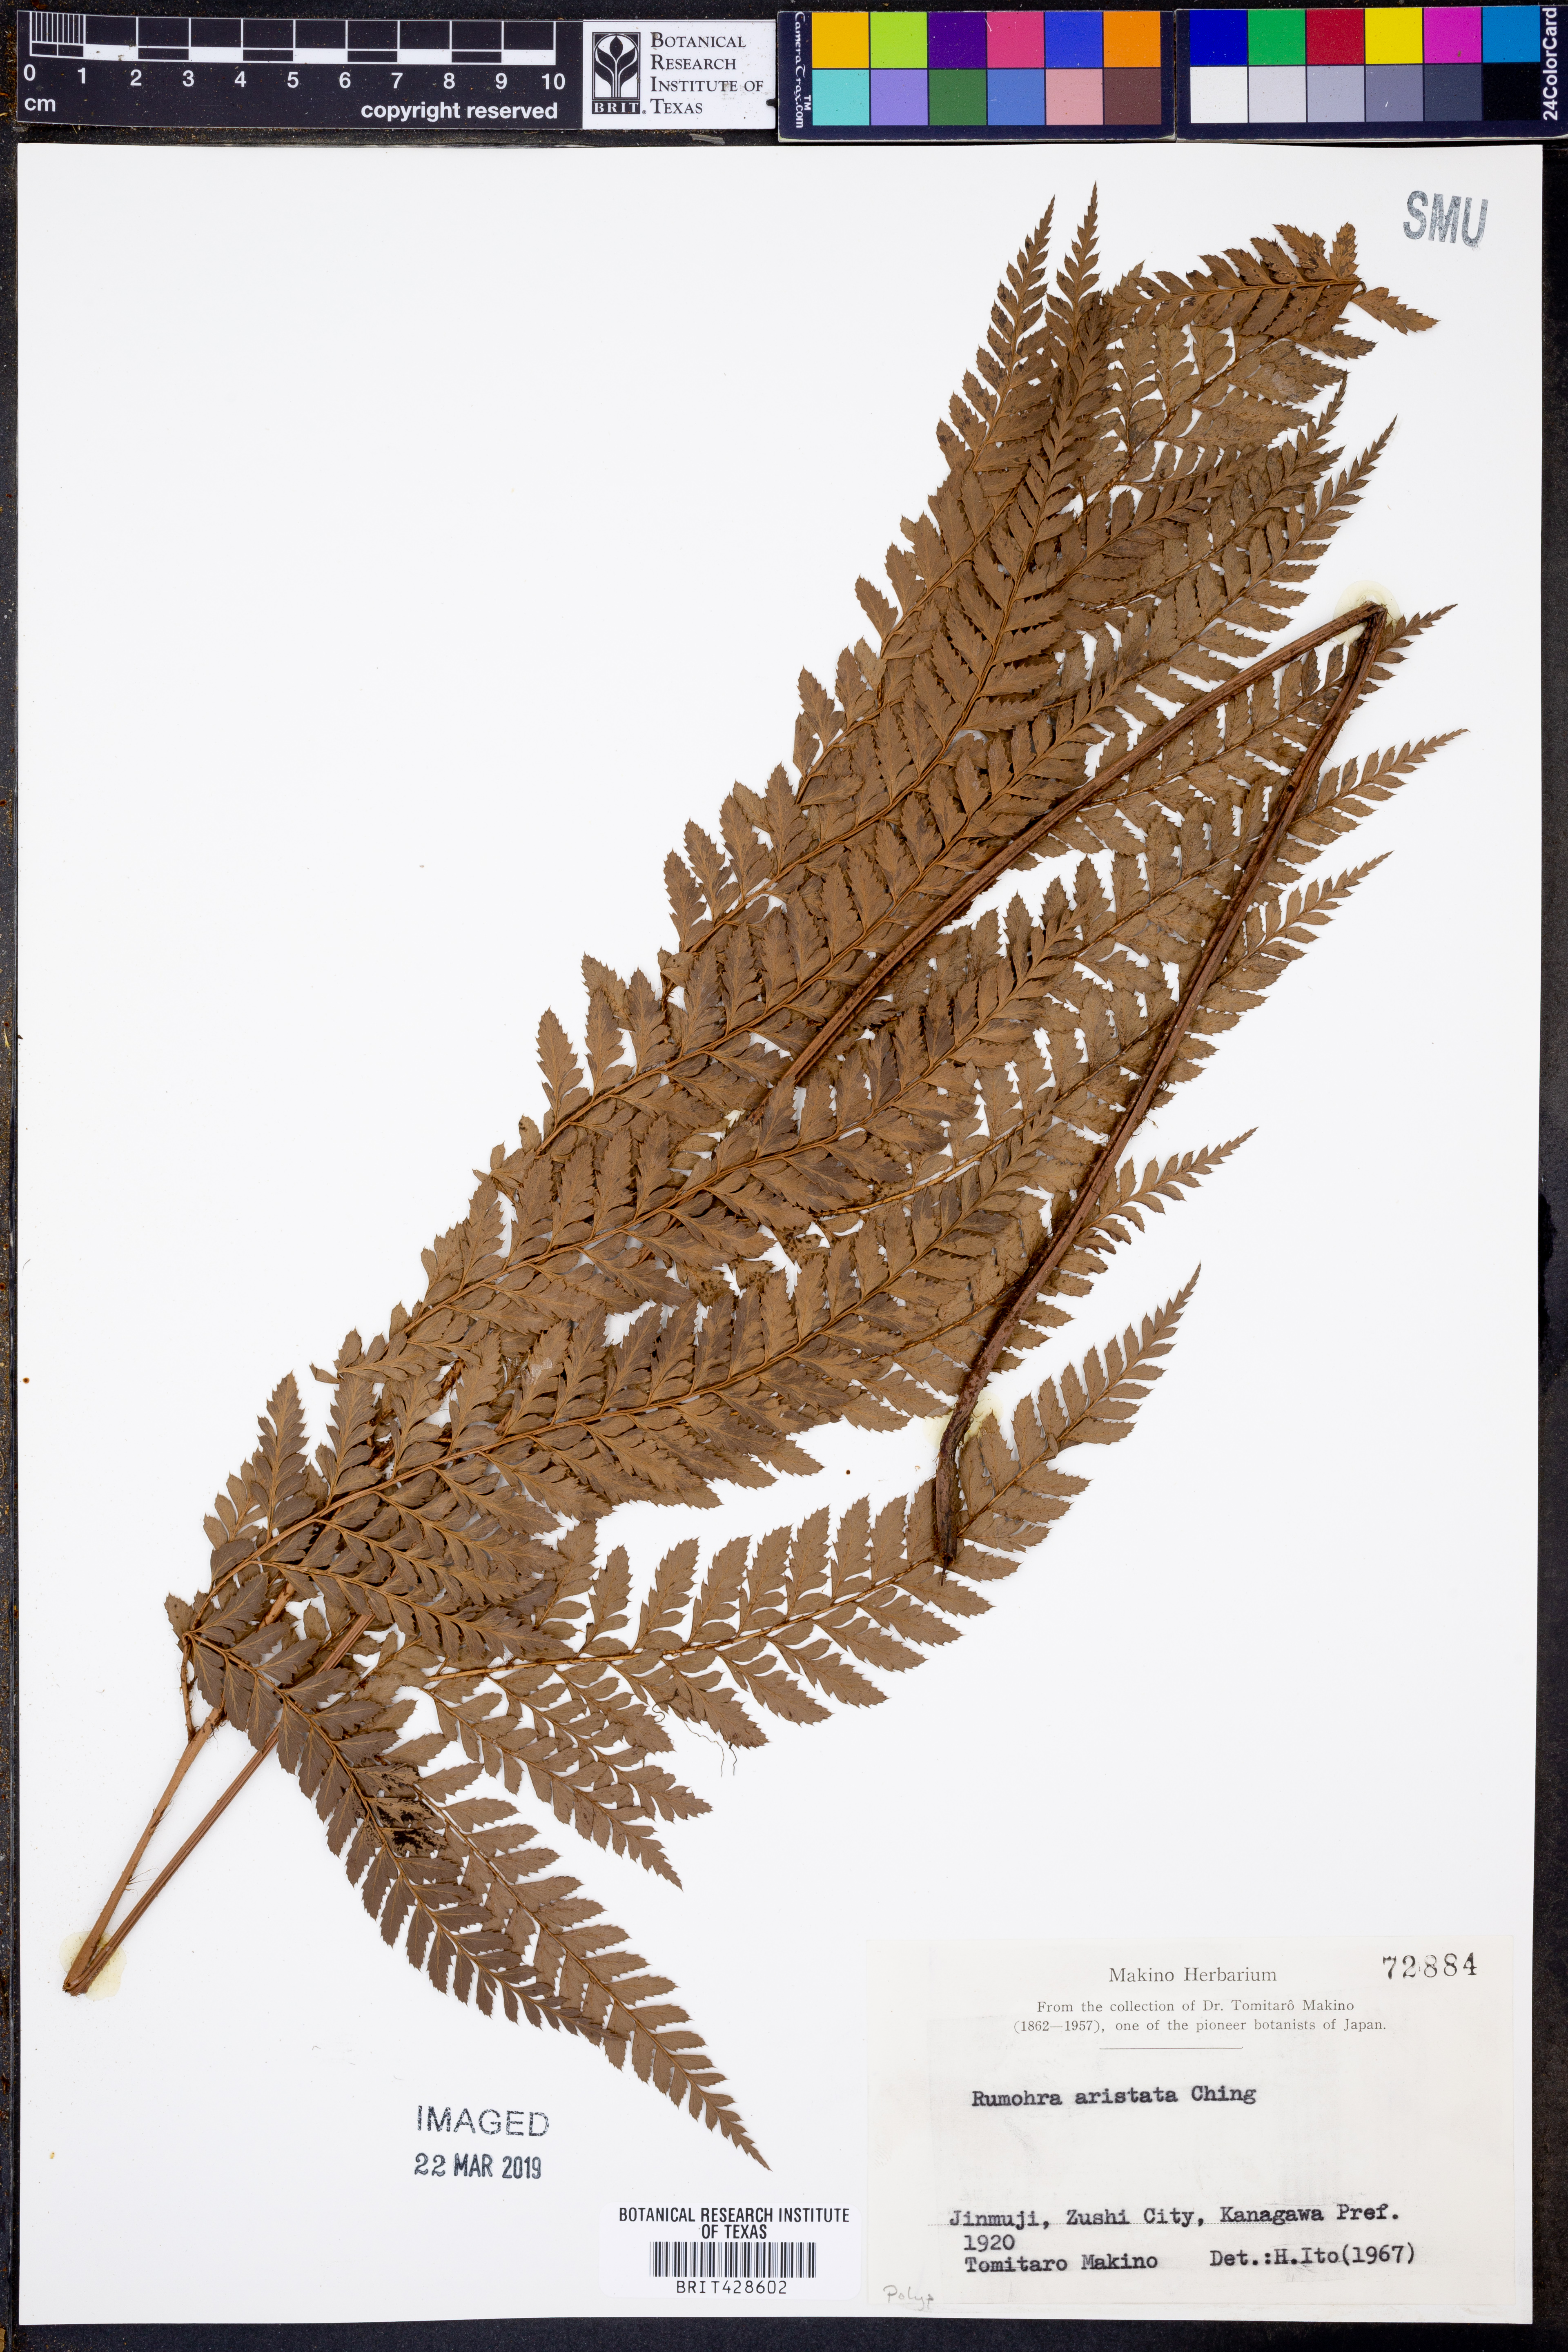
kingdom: Plantae
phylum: Tracheophyta
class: Polypodiopsida
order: Polypodiales
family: Dryopteridaceae
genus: Arachniodes
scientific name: Arachniodes aristata
